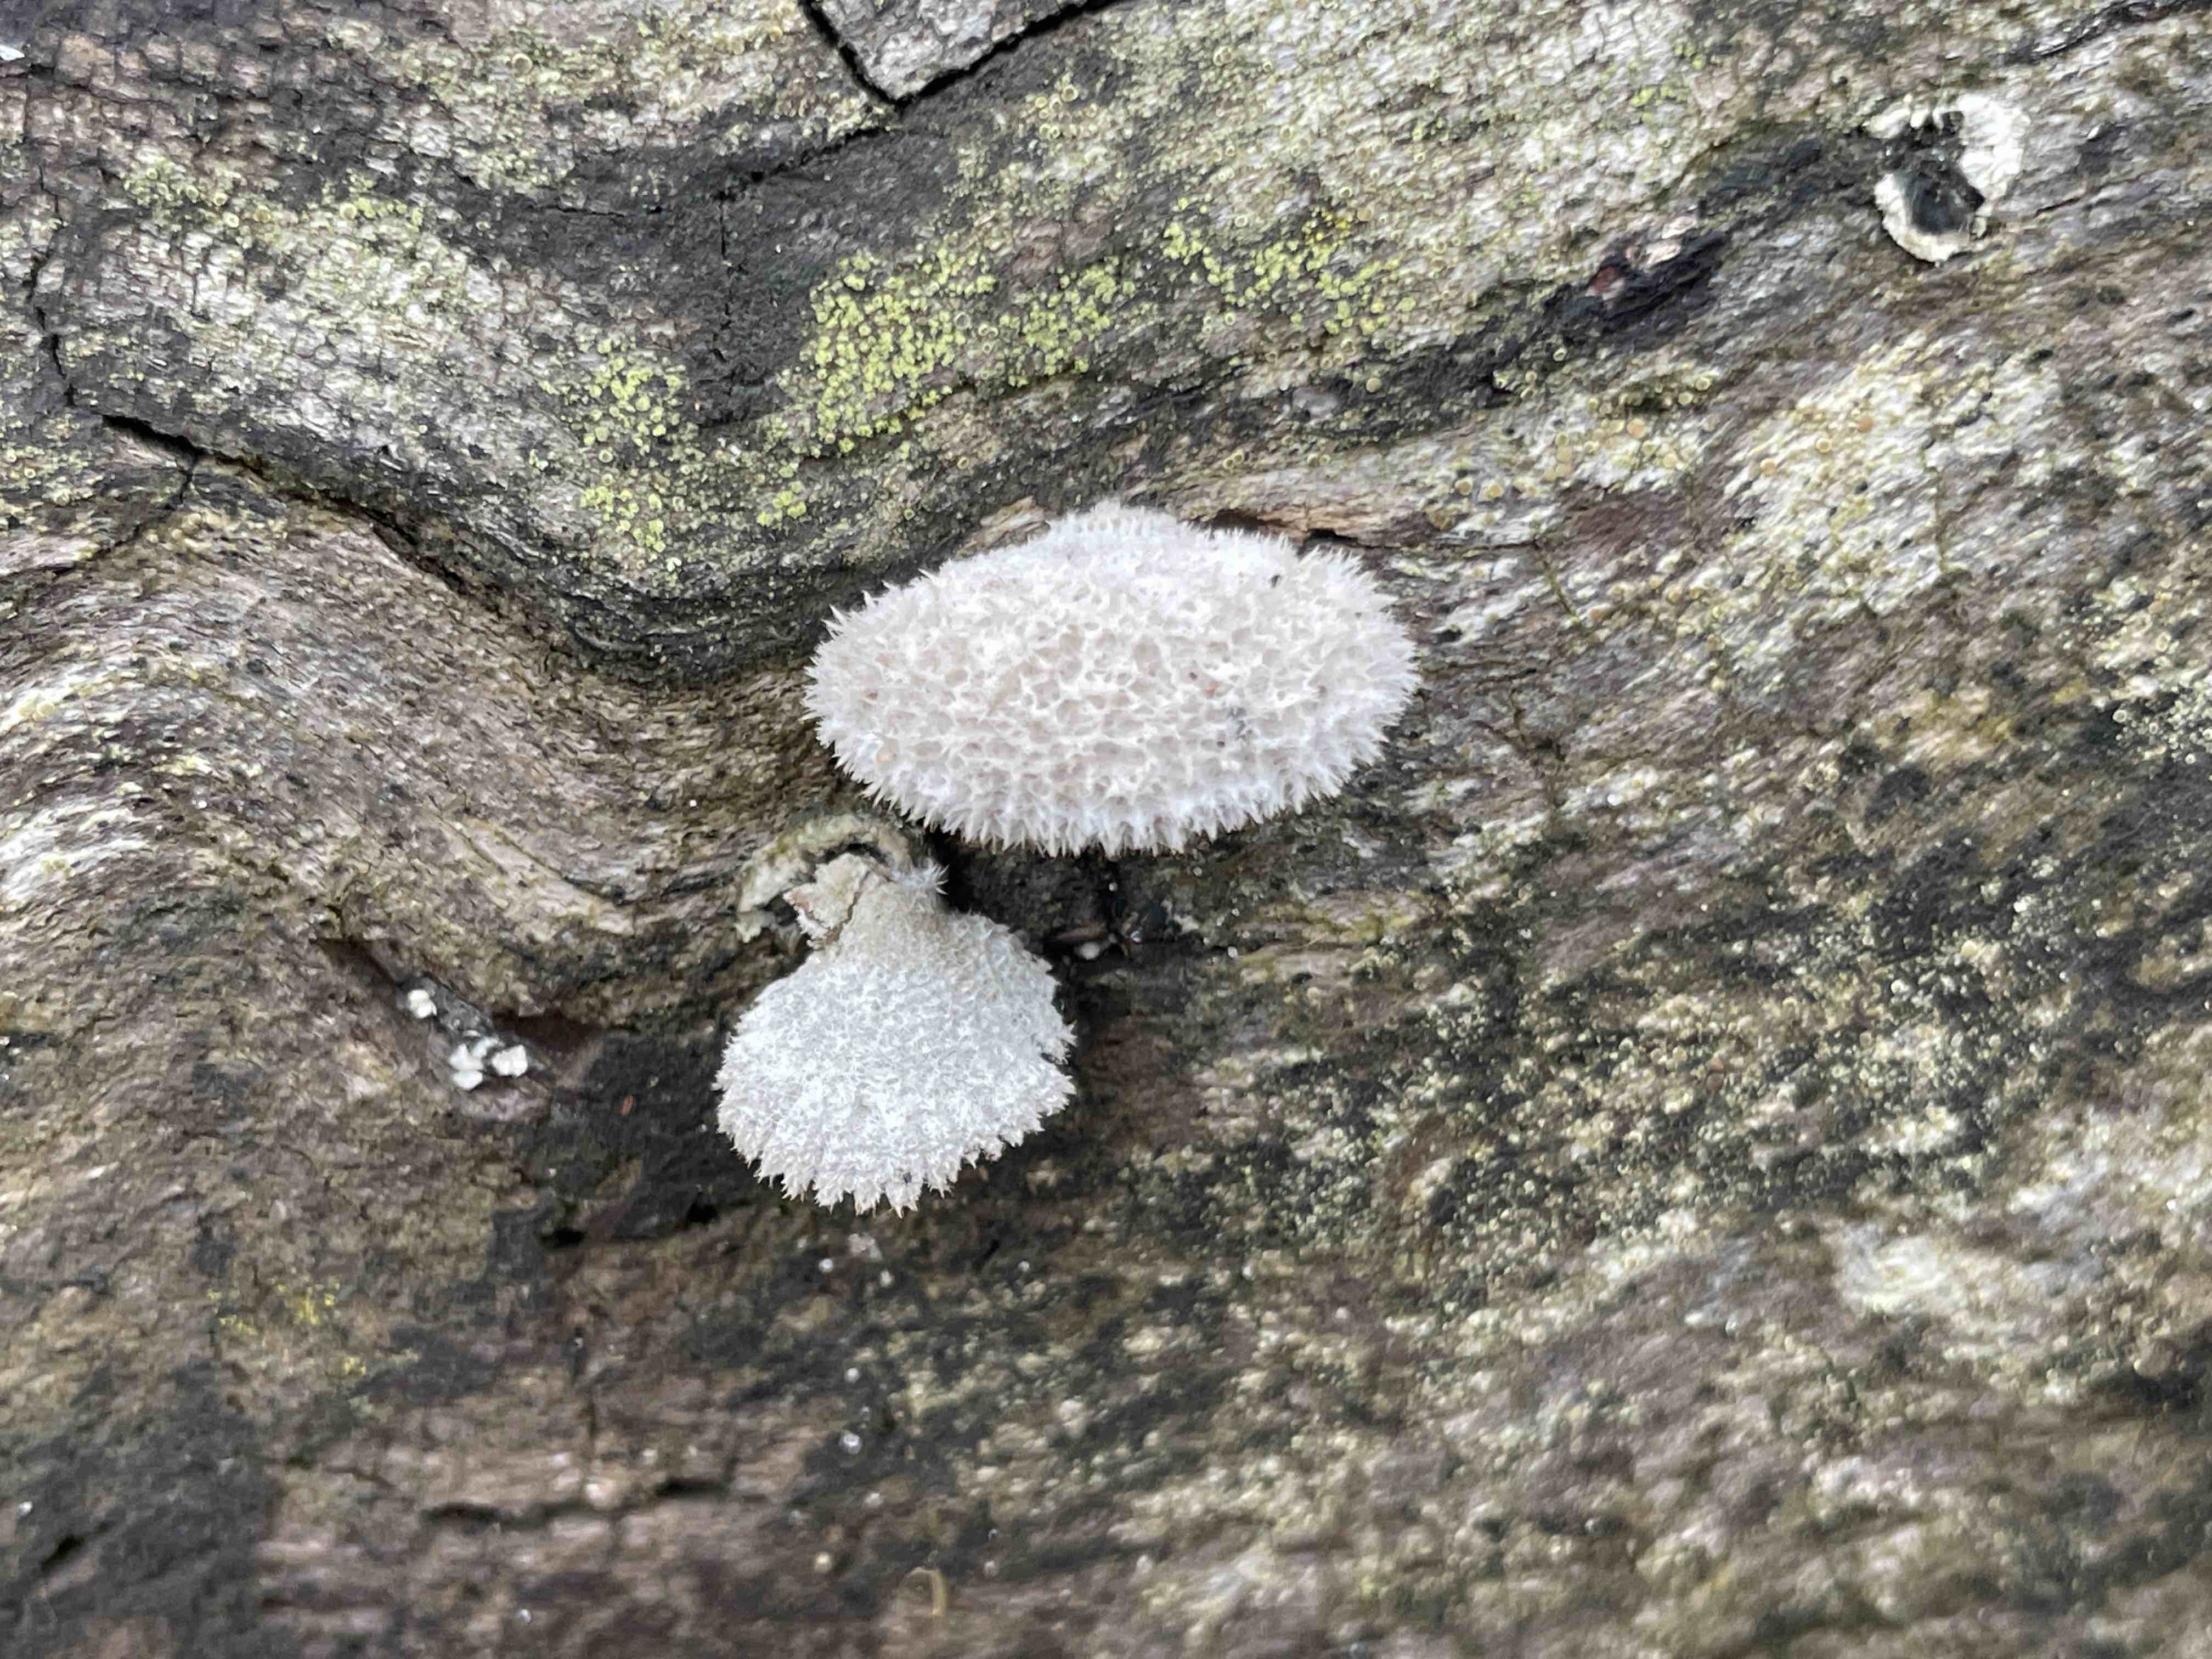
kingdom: Fungi
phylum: Basidiomycota
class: Agaricomycetes
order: Agaricales
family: Schizophyllaceae
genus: Schizophyllum
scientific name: Schizophyllum commune
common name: kløvblad
